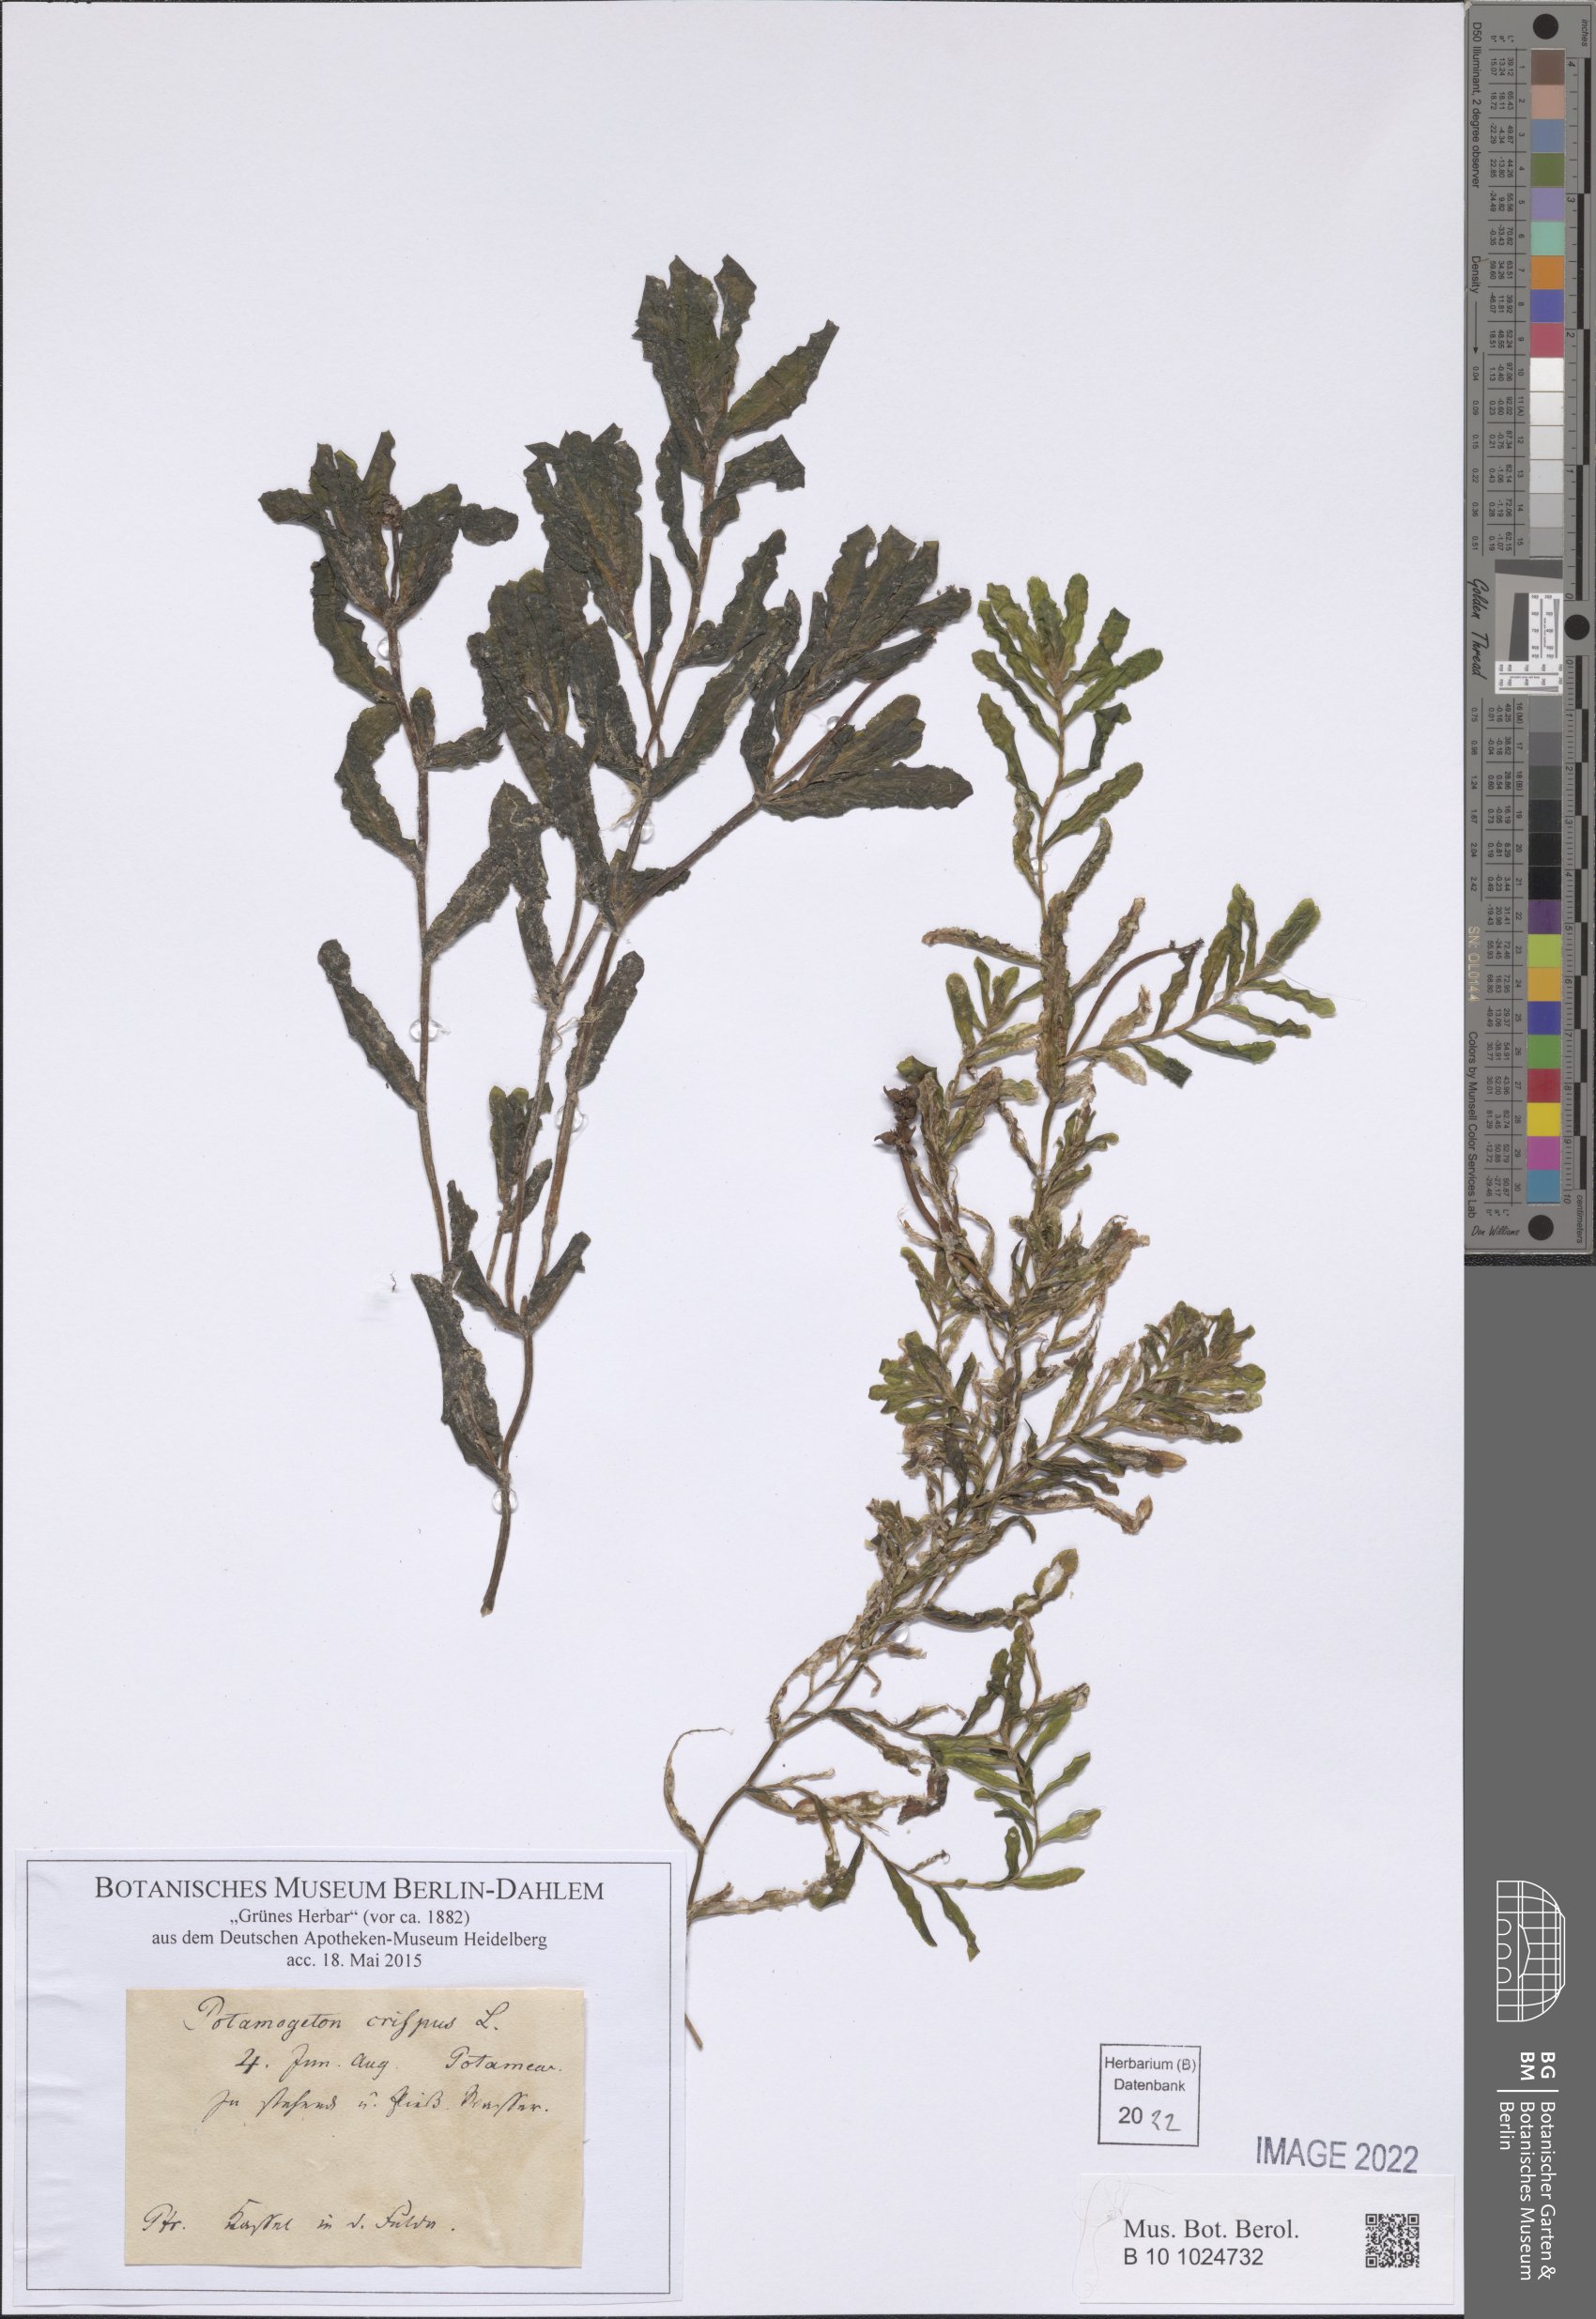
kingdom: Plantae
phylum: Tracheophyta
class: Liliopsida
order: Alismatales
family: Potamogetonaceae
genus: Potamogeton
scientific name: Potamogeton crispus
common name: Curled pondweed
